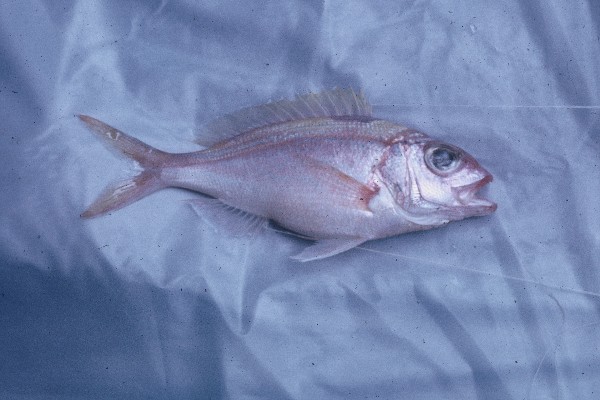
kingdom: Animalia
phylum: Chordata
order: Perciformes
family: Lutjanidae
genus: Pristipomoides
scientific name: Pristipomoides
